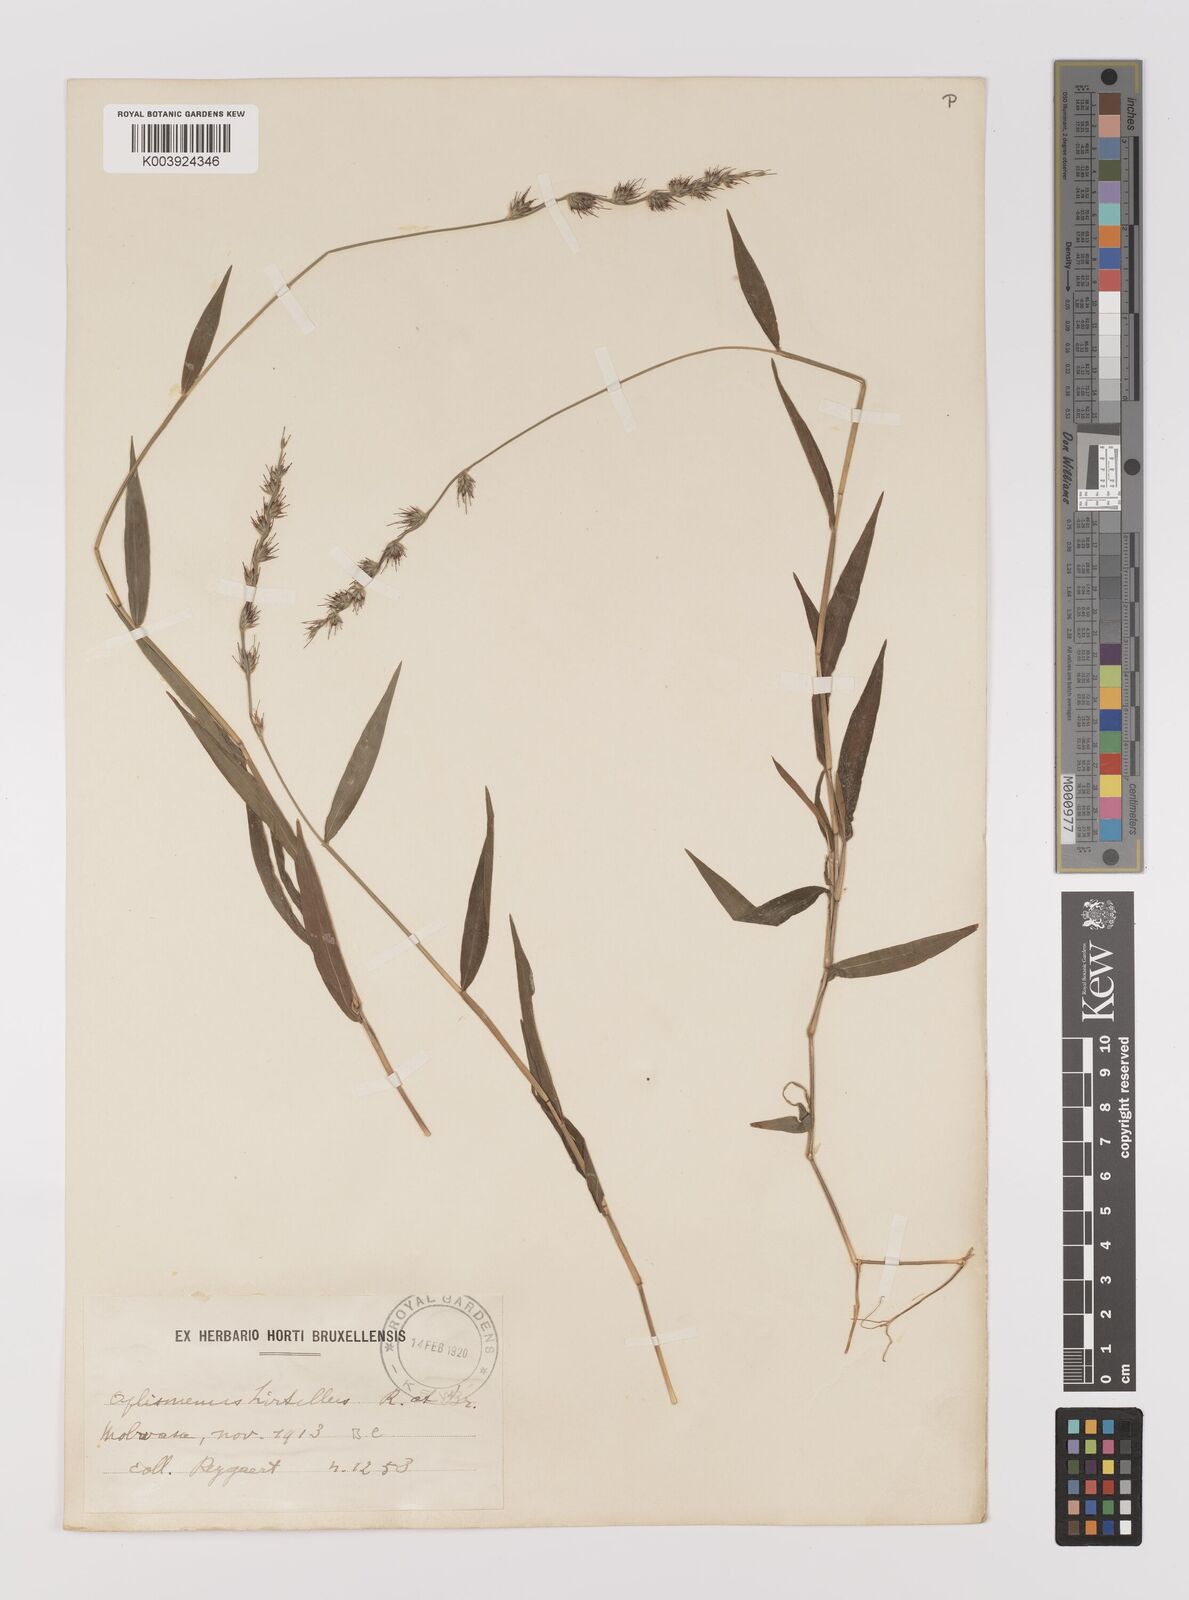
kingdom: Plantae
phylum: Tracheophyta
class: Liliopsida
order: Poales
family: Poaceae
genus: Oplismenus
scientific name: Oplismenus hirtellus
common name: Basketgrass
